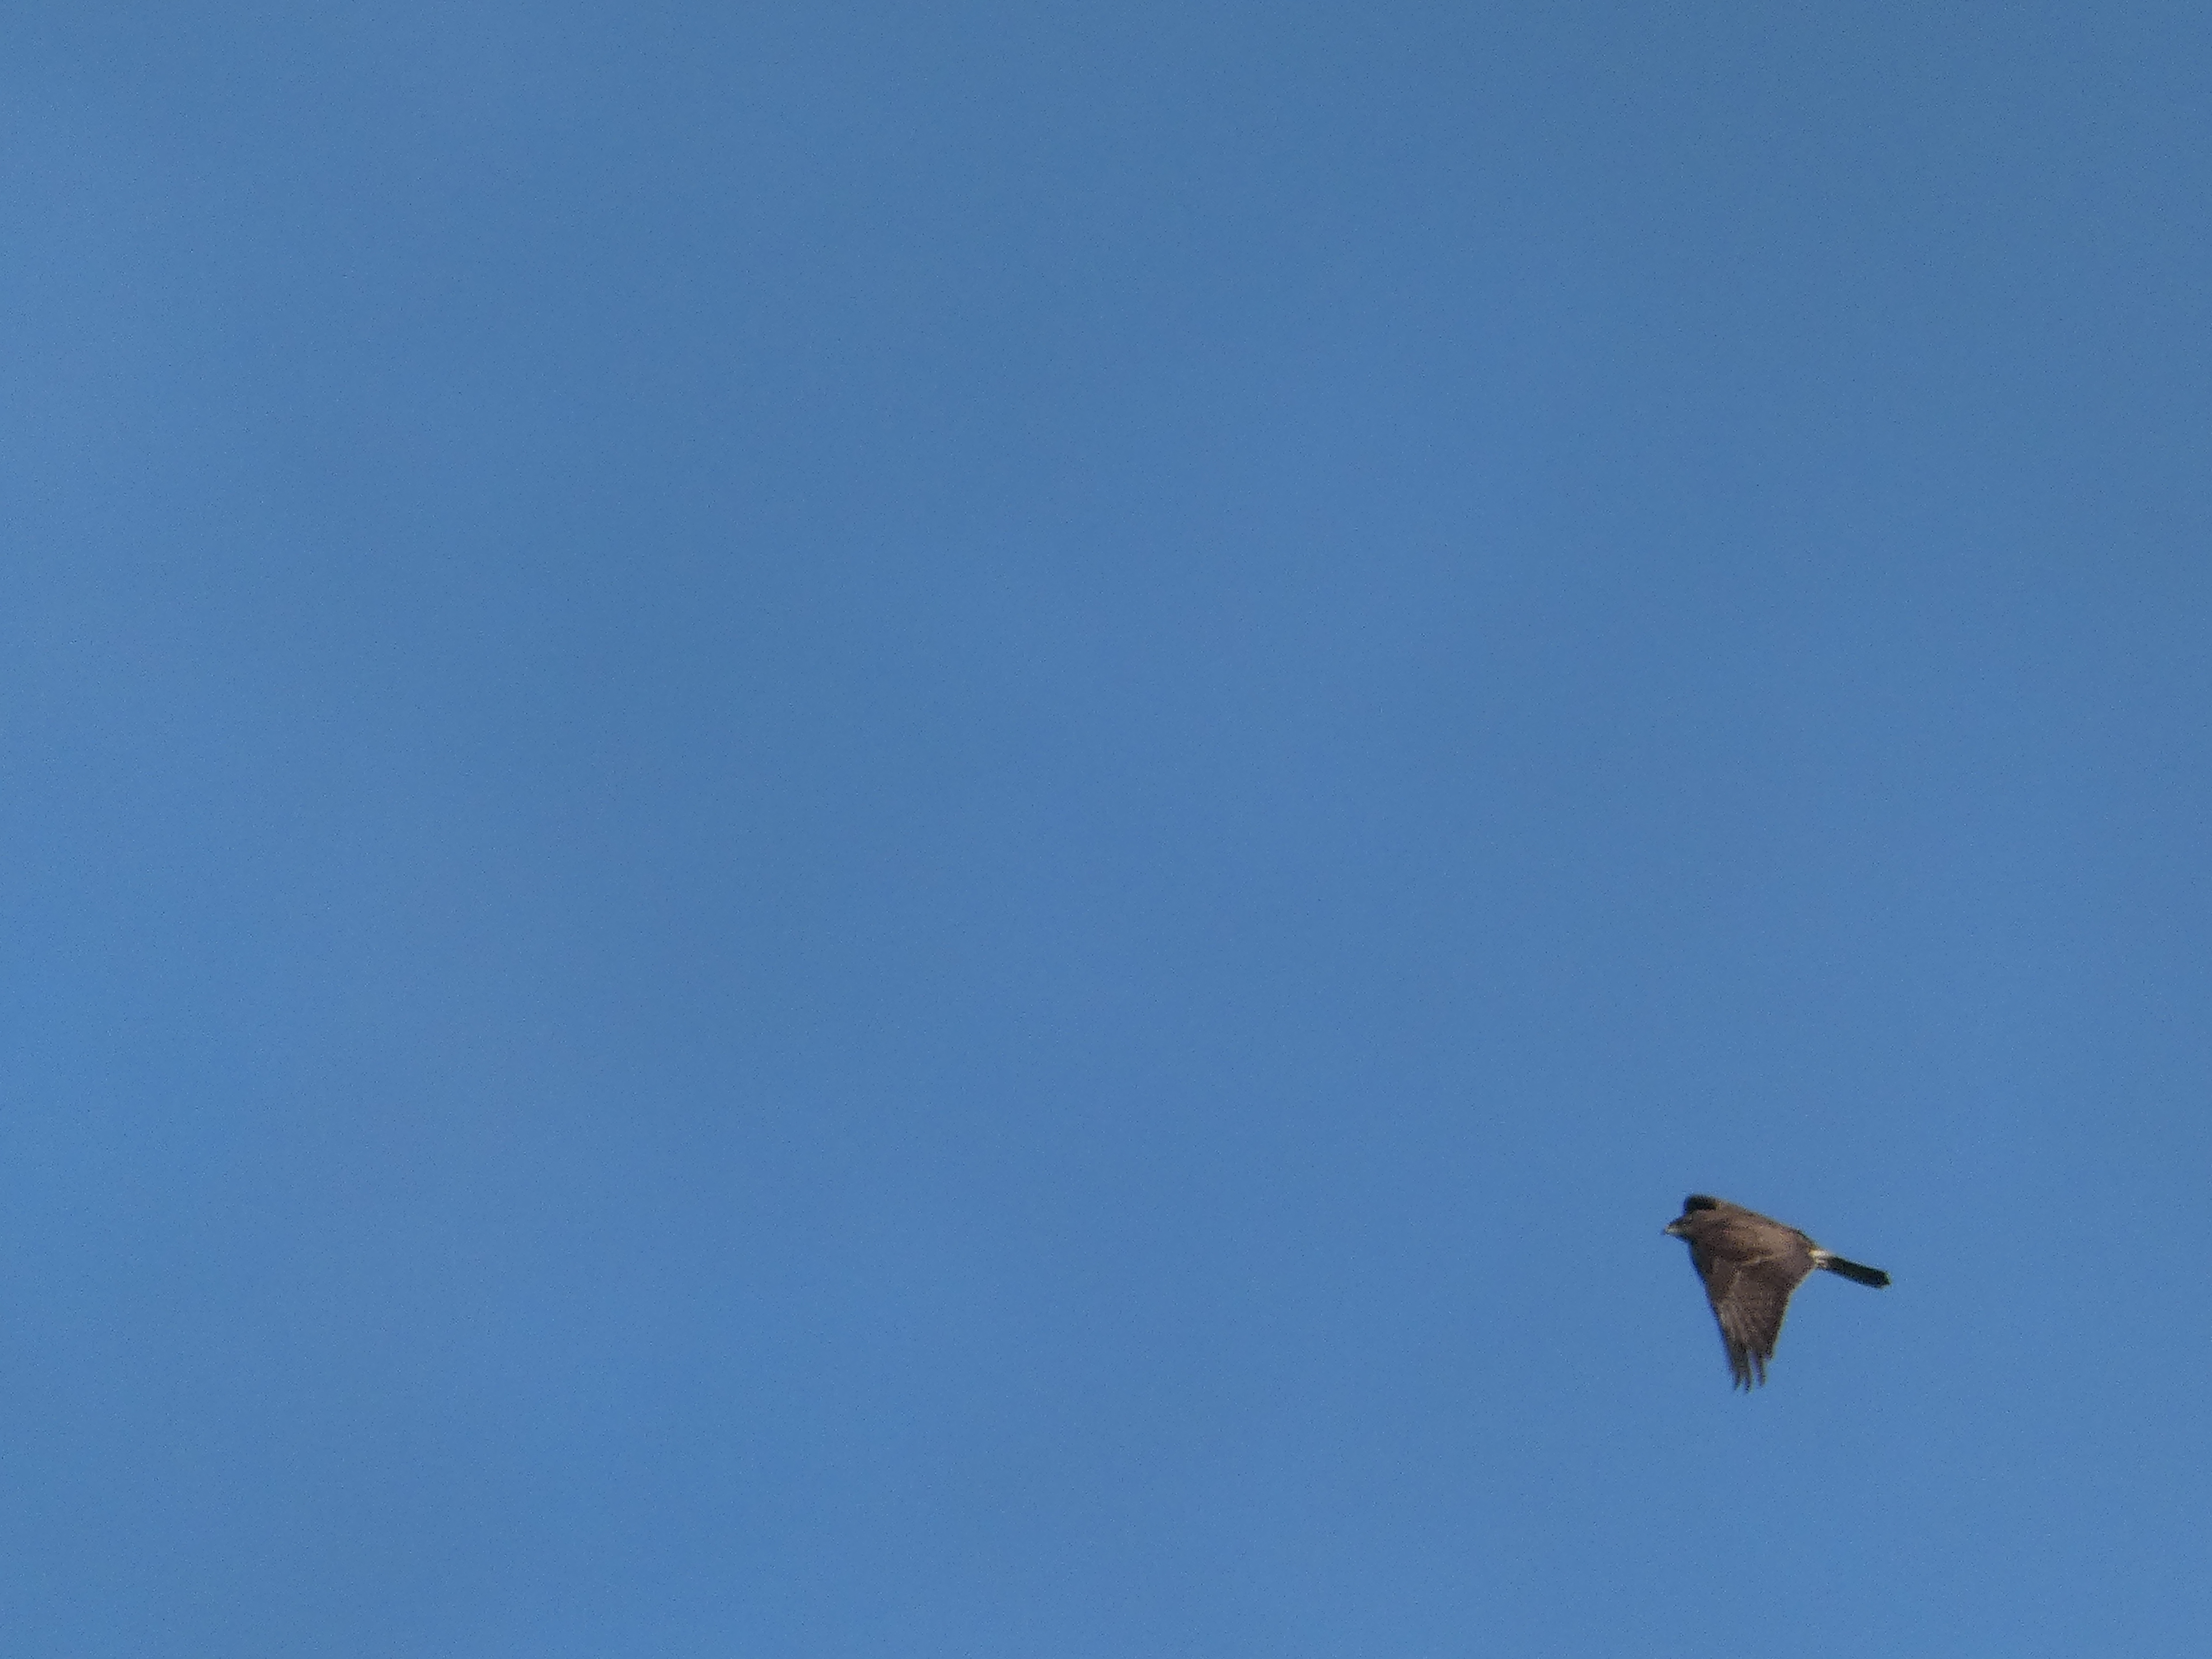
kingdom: Animalia
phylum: Chordata
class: Aves
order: Accipitriformes
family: Accipitridae
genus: Buteo
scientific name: Buteo buteo
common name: Musvåge
